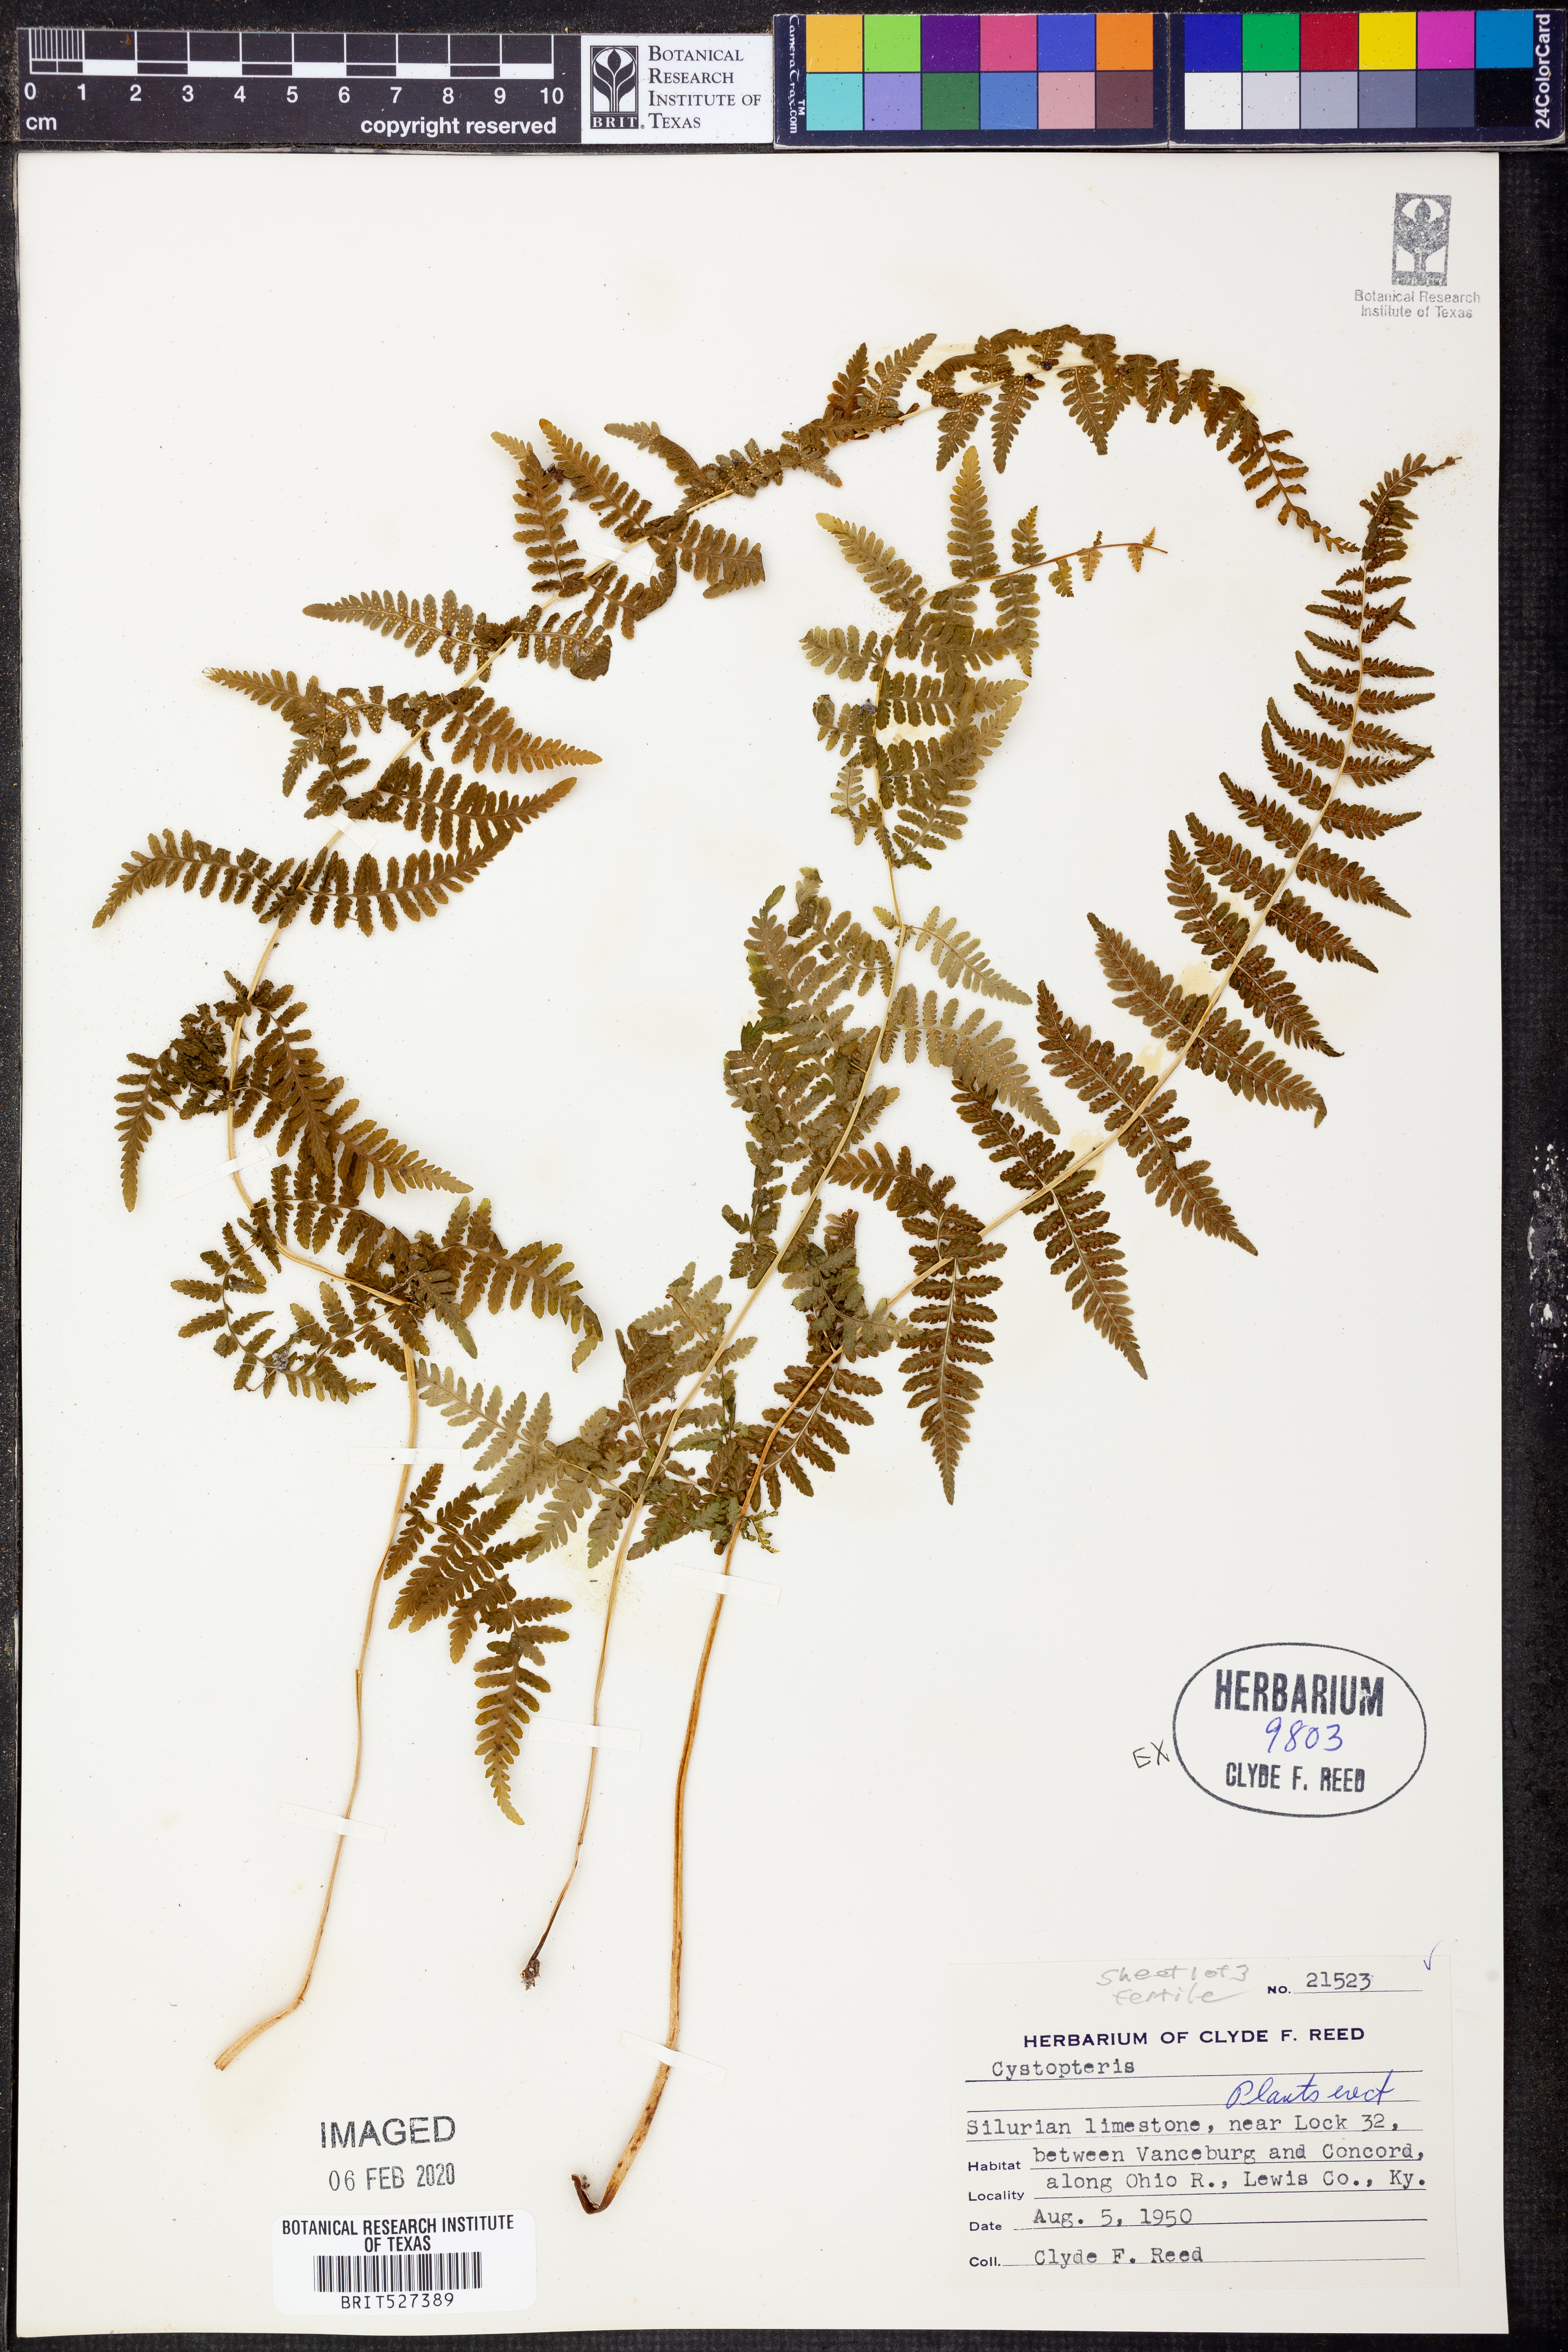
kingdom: Plantae
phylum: Tracheophyta
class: Polypodiopsida
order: Polypodiales
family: Cystopteridaceae
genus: Cystopteris
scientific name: Cystopteris
